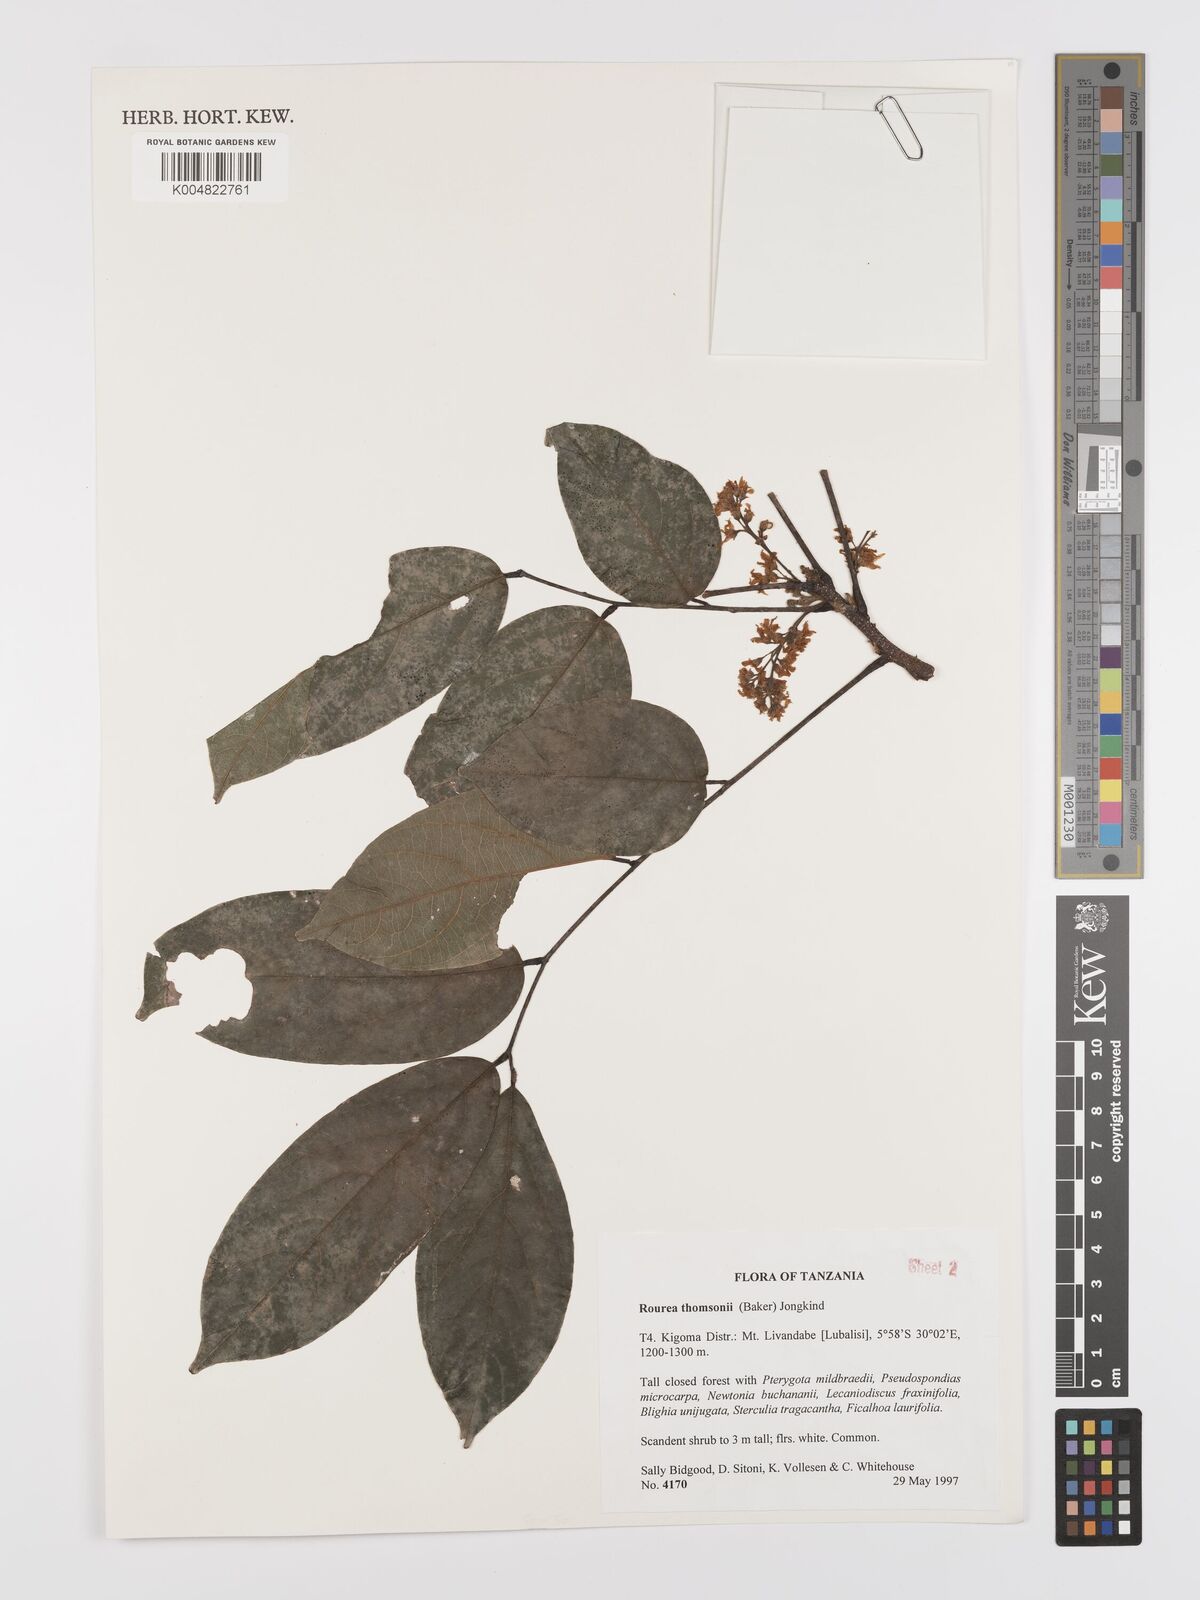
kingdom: Plantae
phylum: Tracheophyta
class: Magnoliopsida
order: Oxalidales
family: Connaraceae
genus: Rourea
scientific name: Rourea thomsonii
